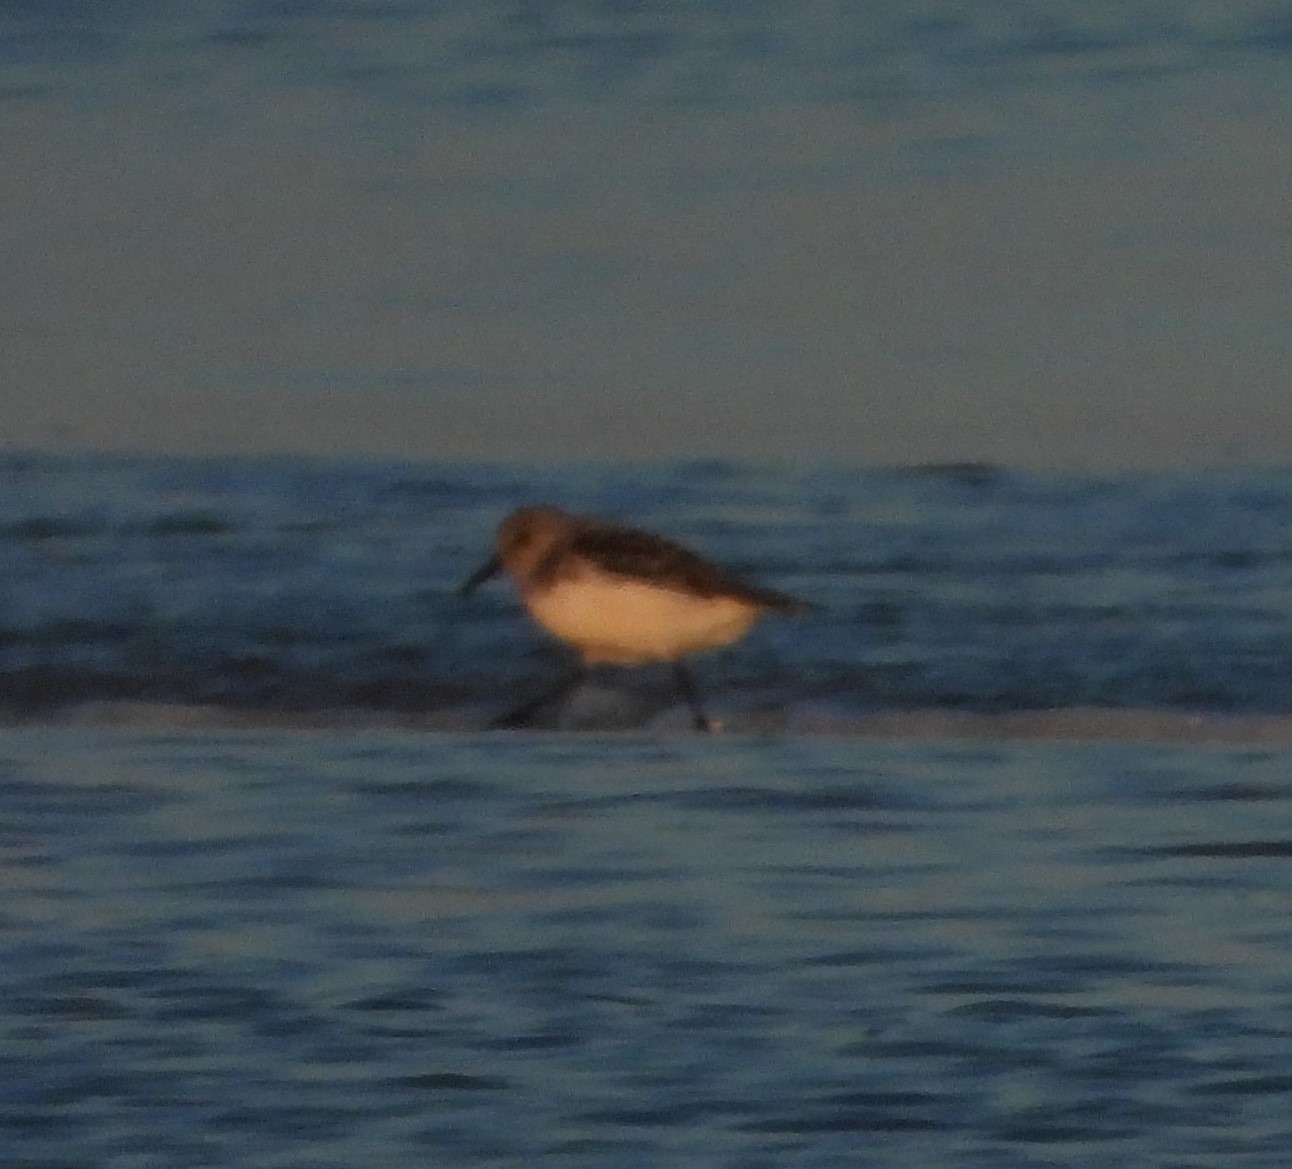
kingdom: Animalia
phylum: Chordata
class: Aves
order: Charadriiformes
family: Scolopacidae
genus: Calidris
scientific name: Calidris alba
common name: Sandløber
